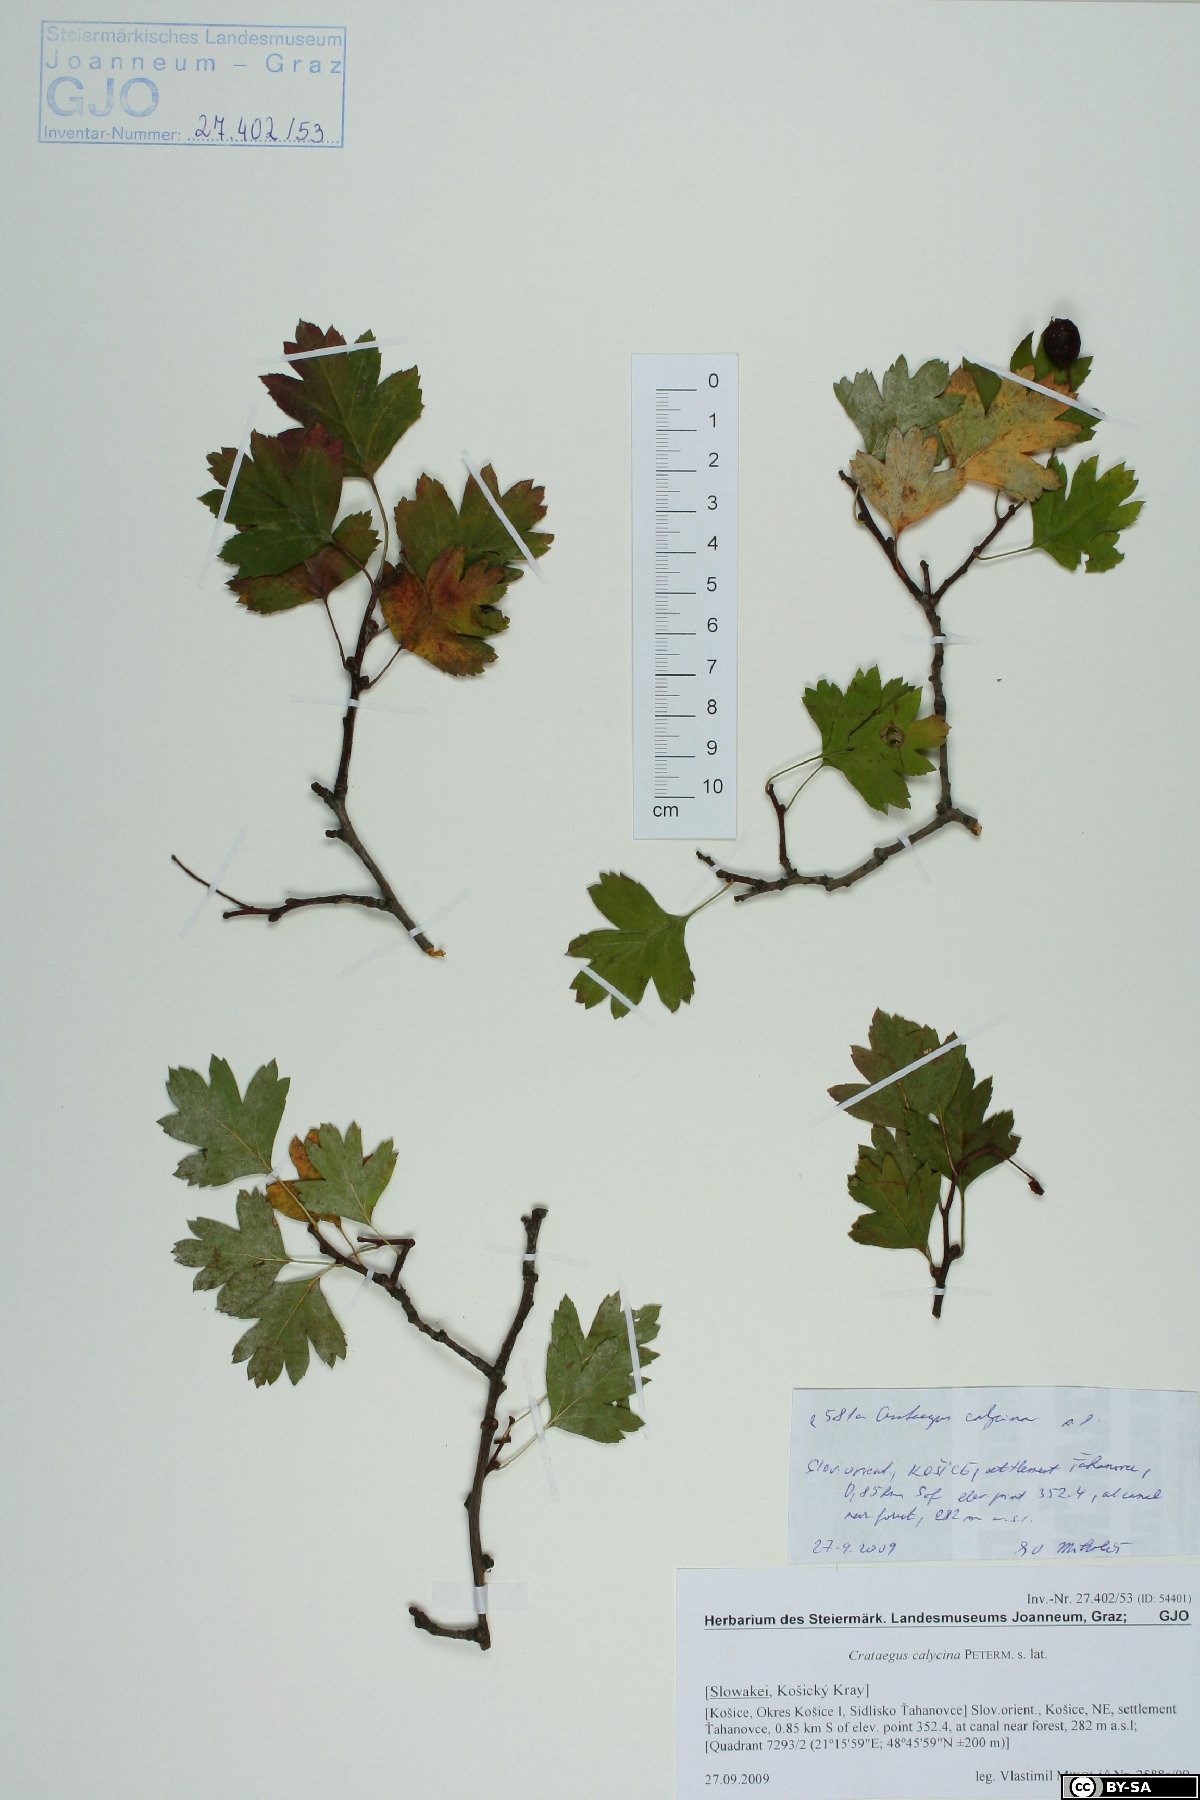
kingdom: Plantae
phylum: Tracheophyta
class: Magnoliopsida
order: Rosales
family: Rosaceae
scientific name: Rosaceae
